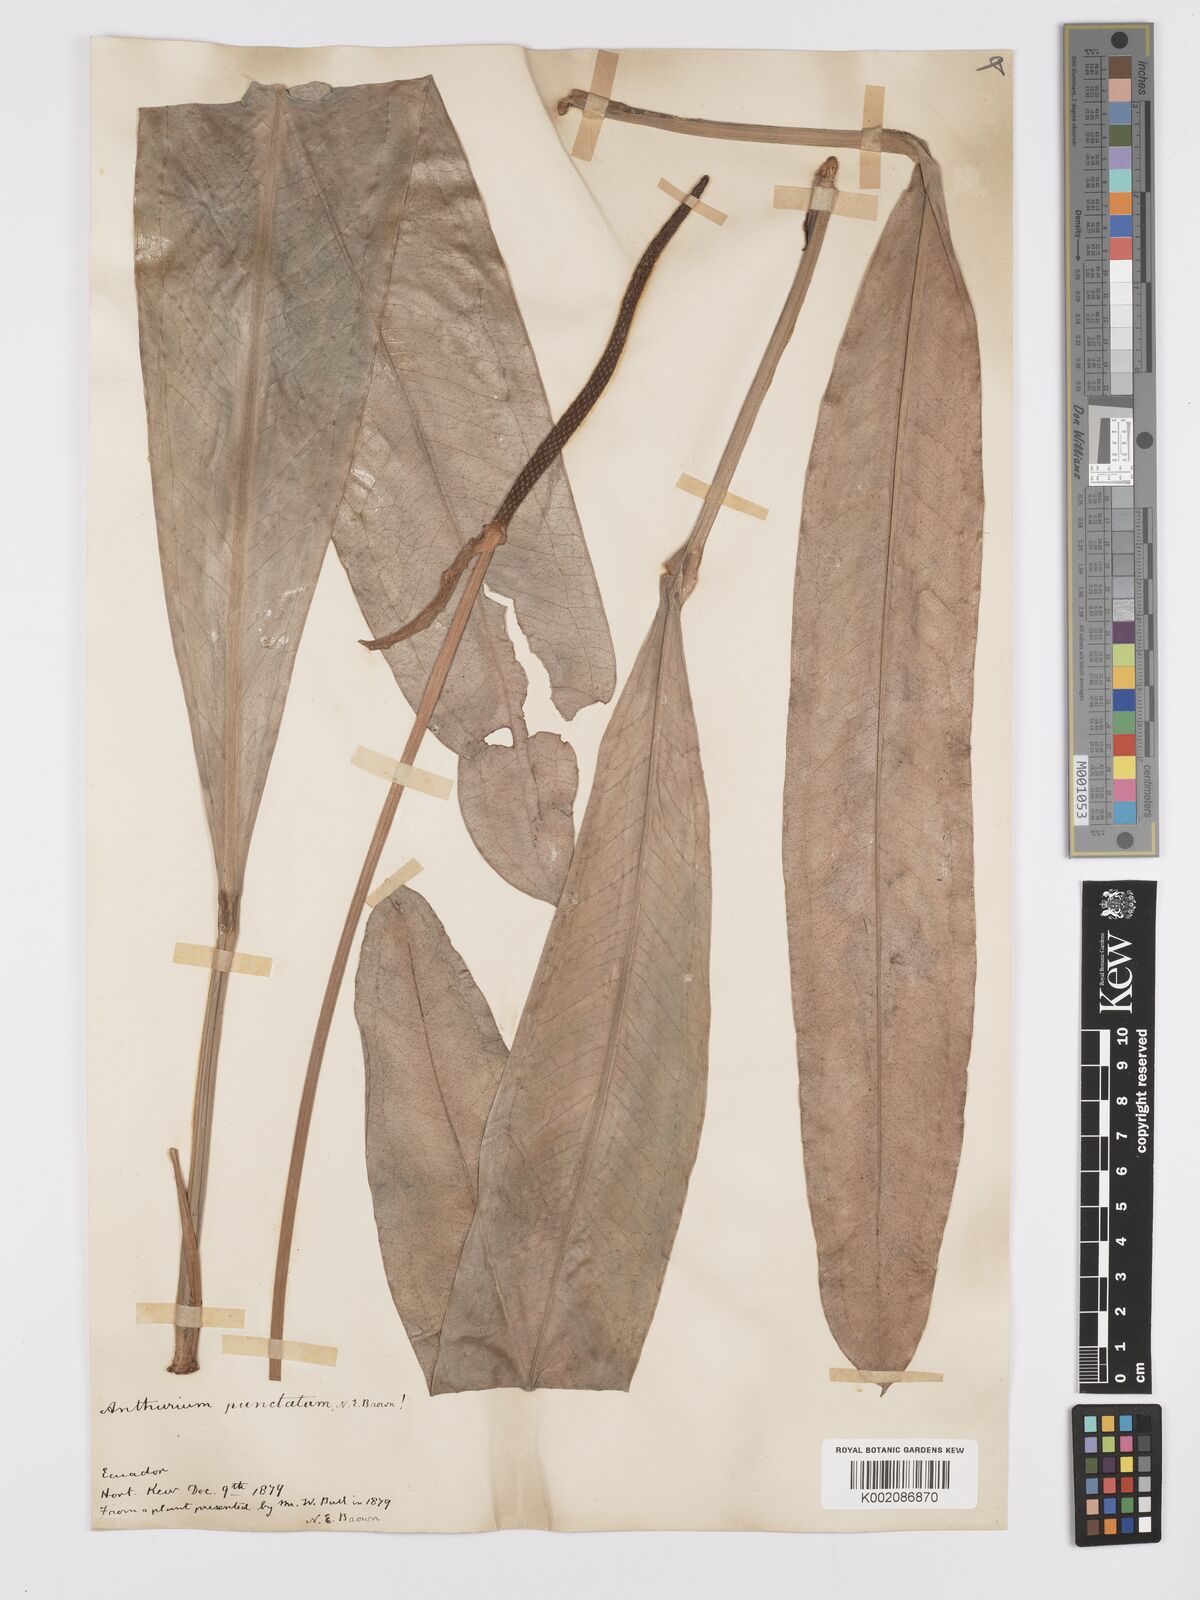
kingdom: Plantae
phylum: Tracheophyta
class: Liliopsida
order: Alismatales
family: Araceae
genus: Anthurium
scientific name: Anthurium punctatum
